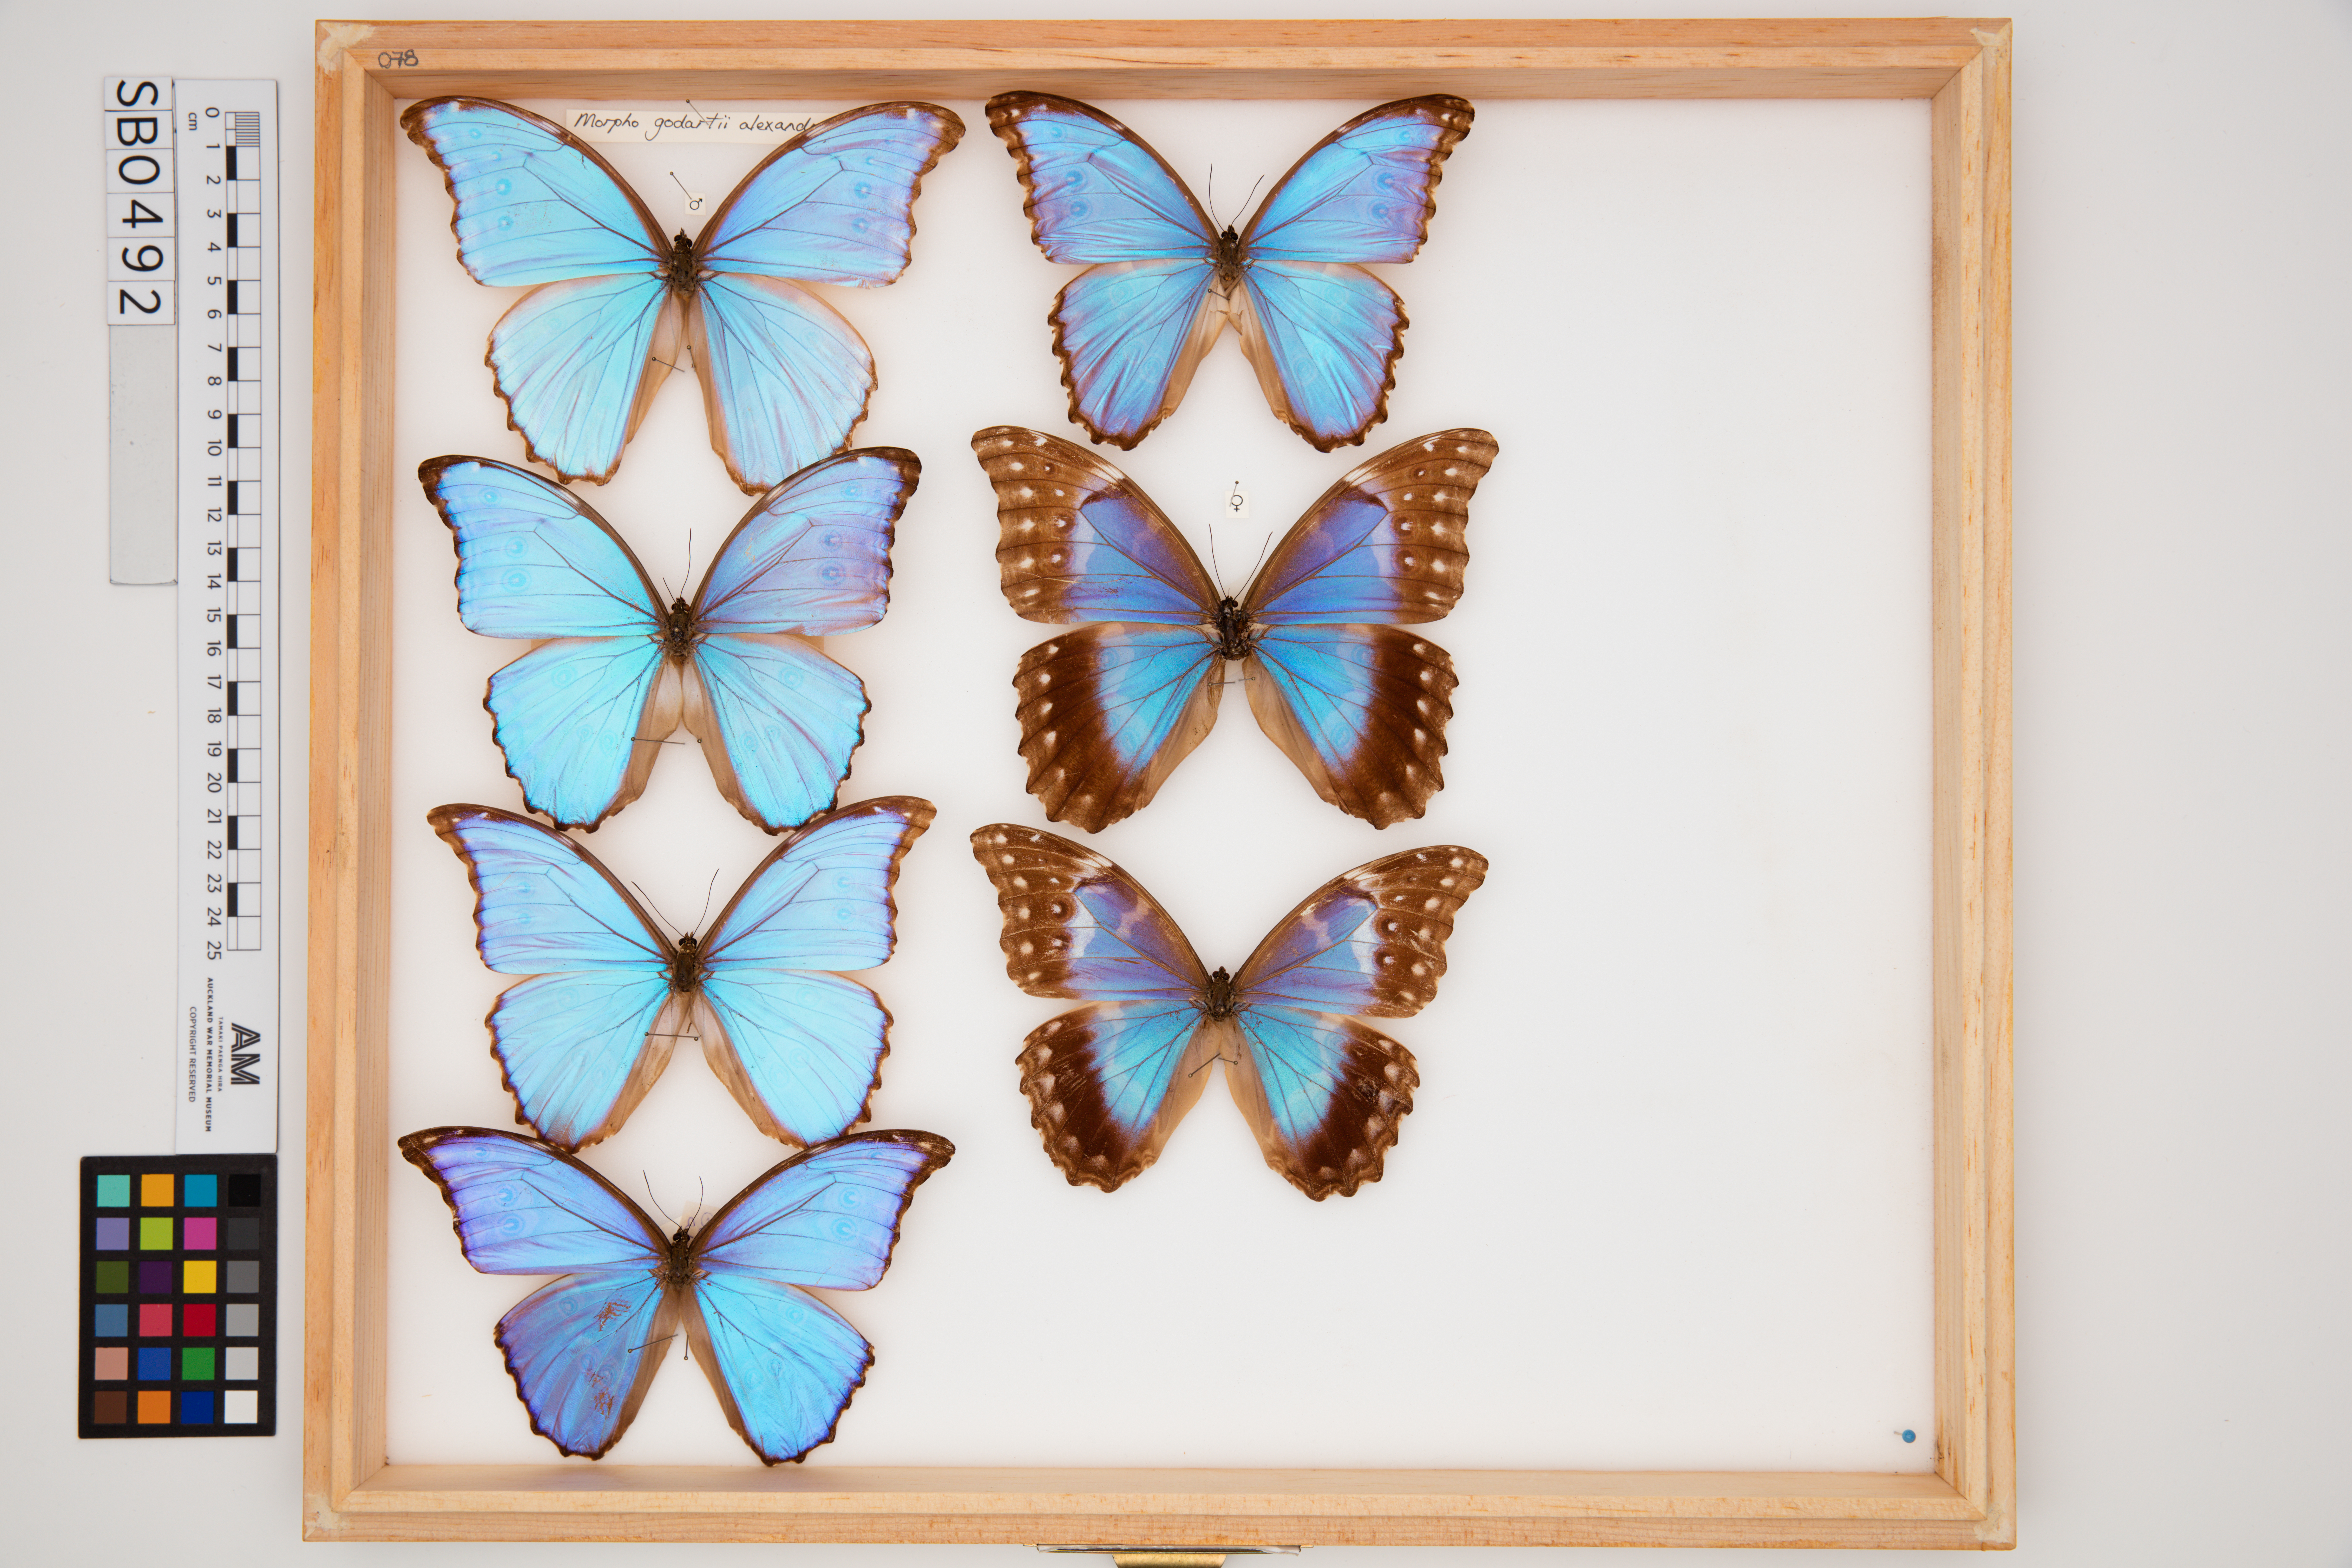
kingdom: Animalia
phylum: Arthropoda
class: Insecta
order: Lepidoptera
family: Nymphalidae
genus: Morpho
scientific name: Morpho godartii
